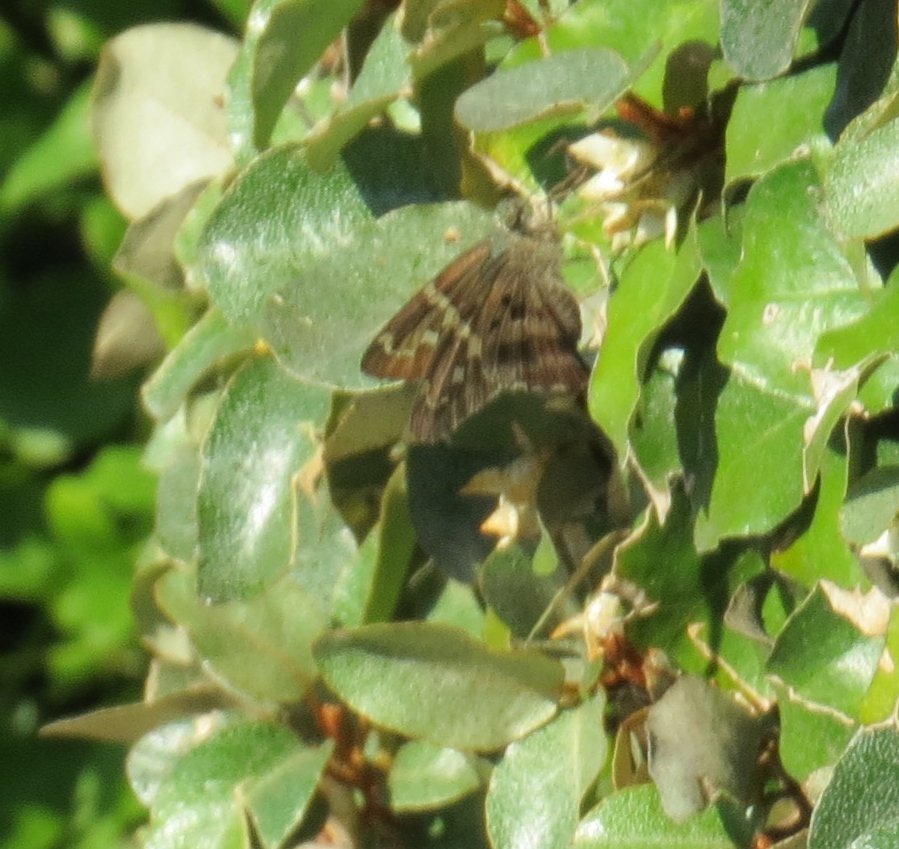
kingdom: Animalia
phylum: Arthropoda
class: Insecta
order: Lepidoptera
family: Hesperiidae
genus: Urbanus
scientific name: Urbanus proteus
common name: Long-tailed Skipper
